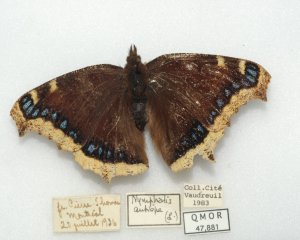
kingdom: Animalia
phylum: Arthropoda
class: Insecta
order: Lepidoptera
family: Nymphalidae
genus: Nymphalis
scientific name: Nymphalis antiopa
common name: Mourning Cloak
